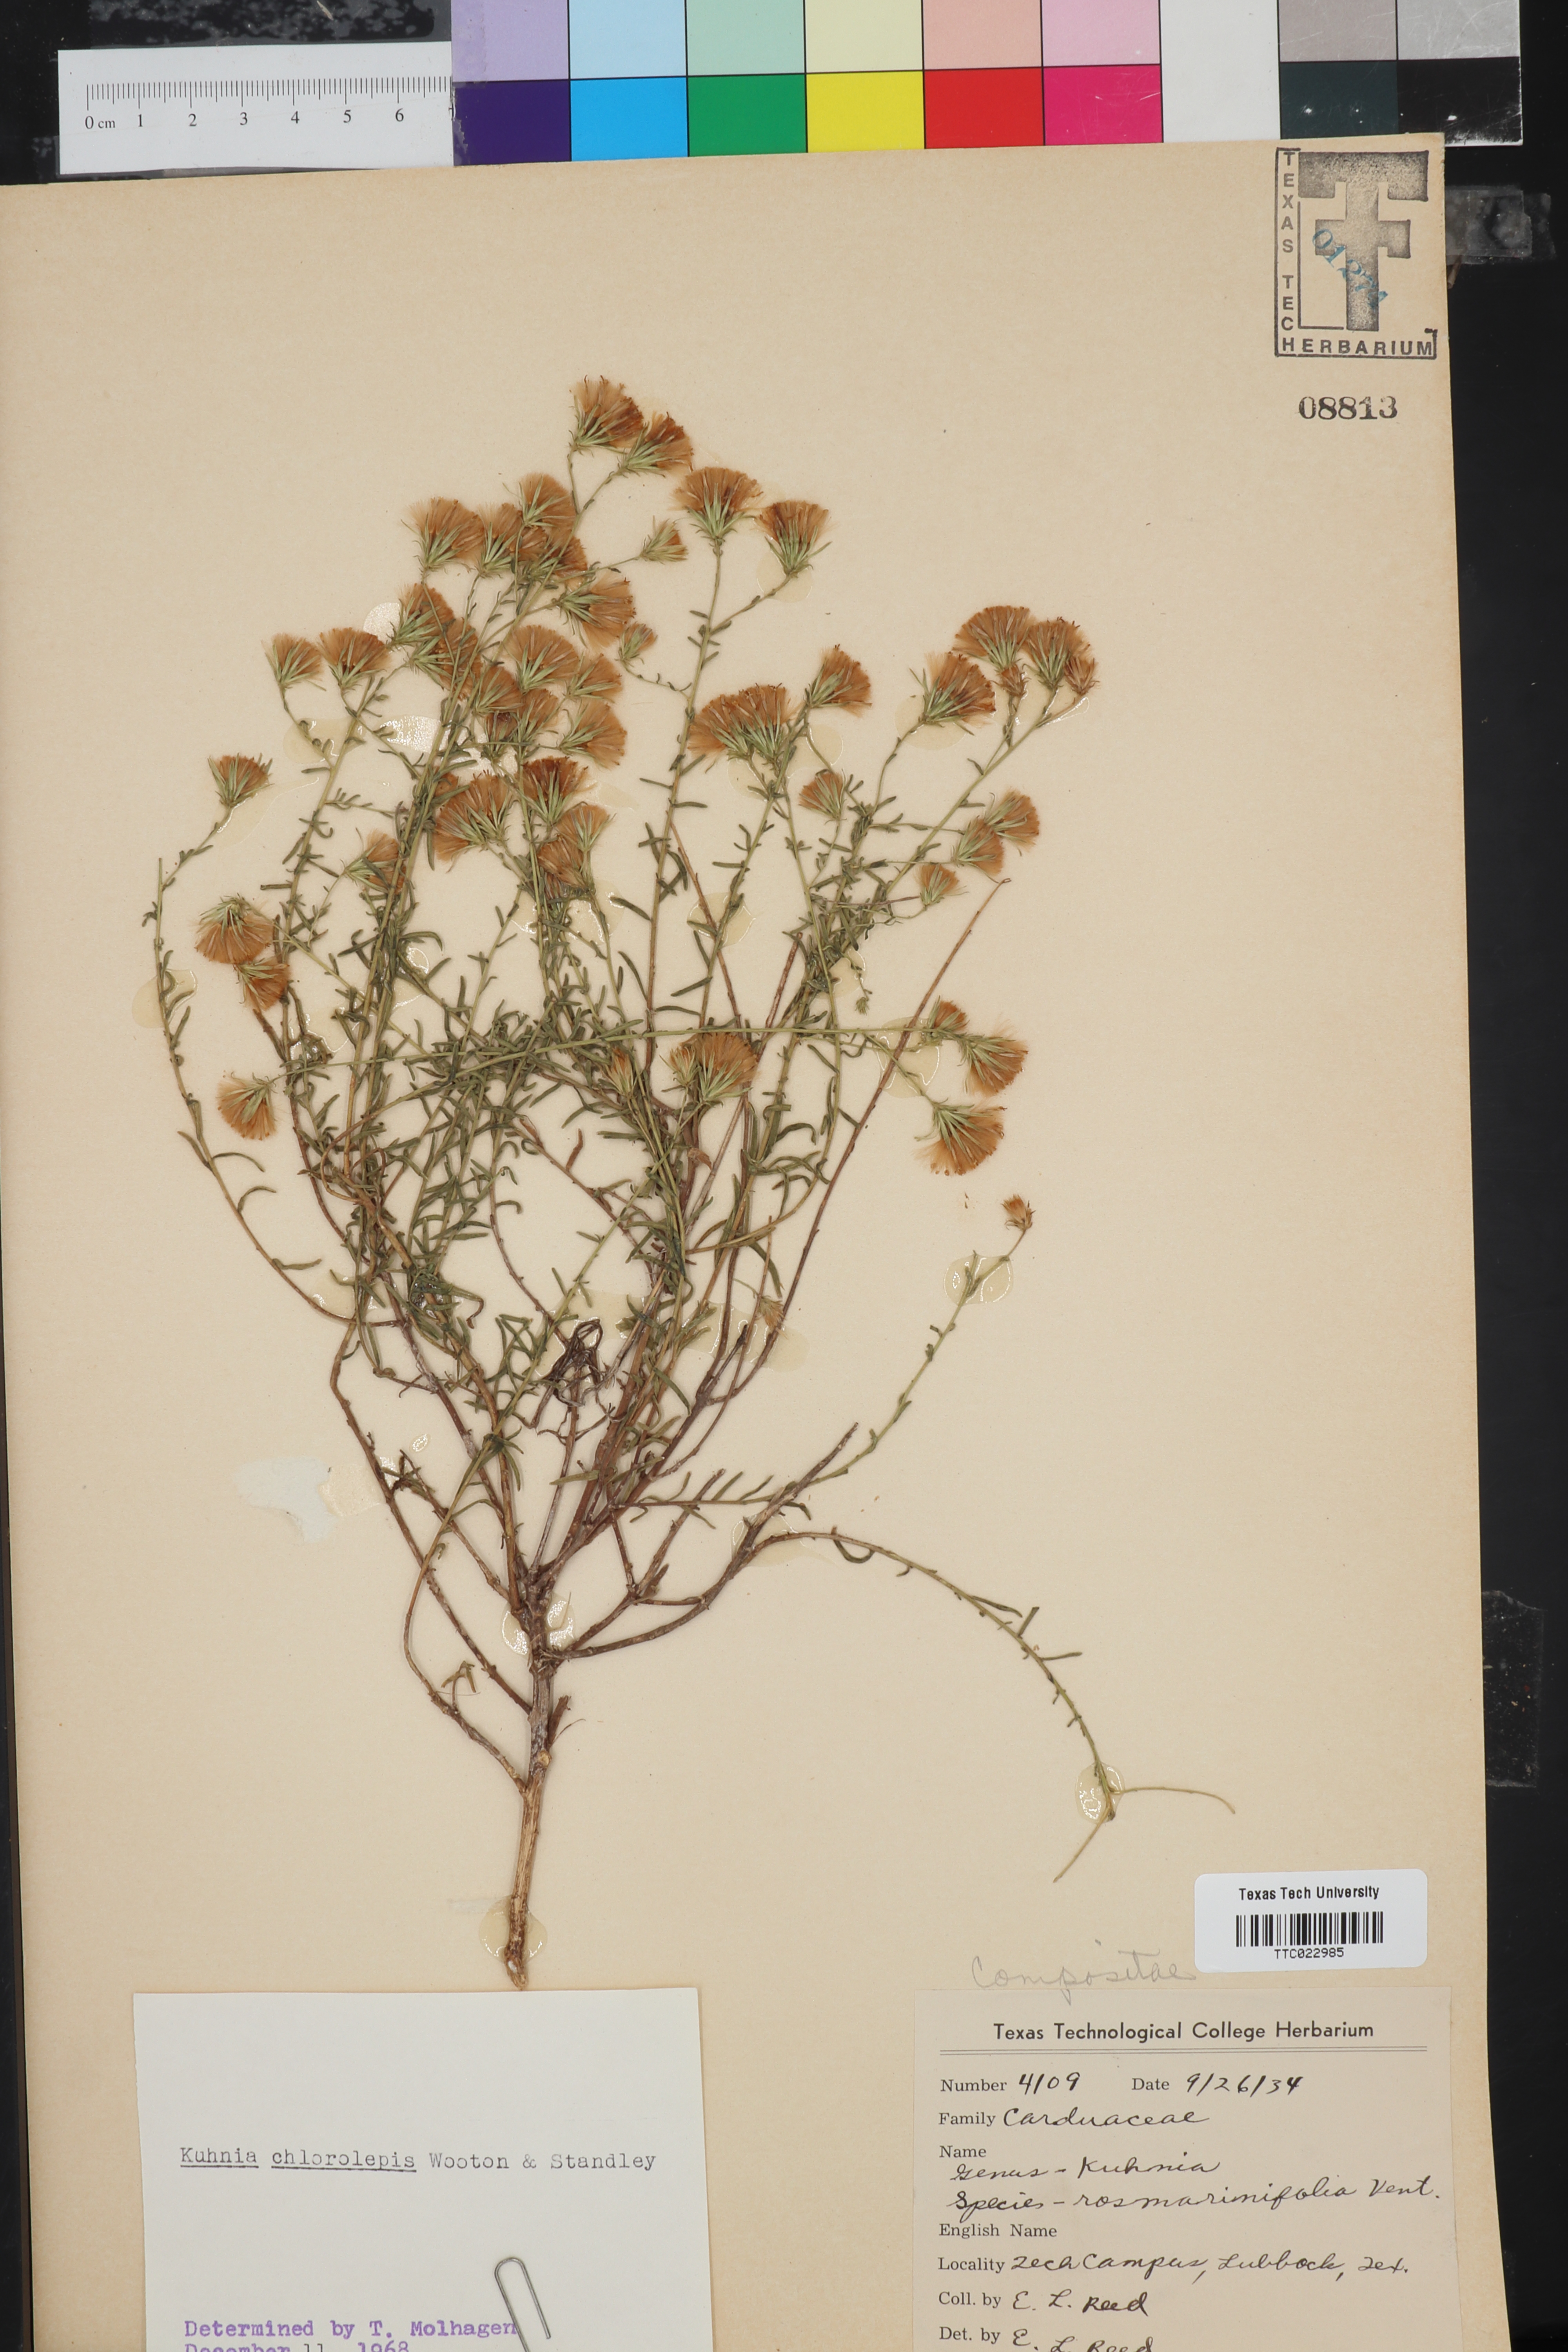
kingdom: Plantae
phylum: Tracheophyta
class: Magnoliopsida
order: Asterales
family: Asteraceae
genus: Brickellia
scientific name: Brickellia leptophylla
